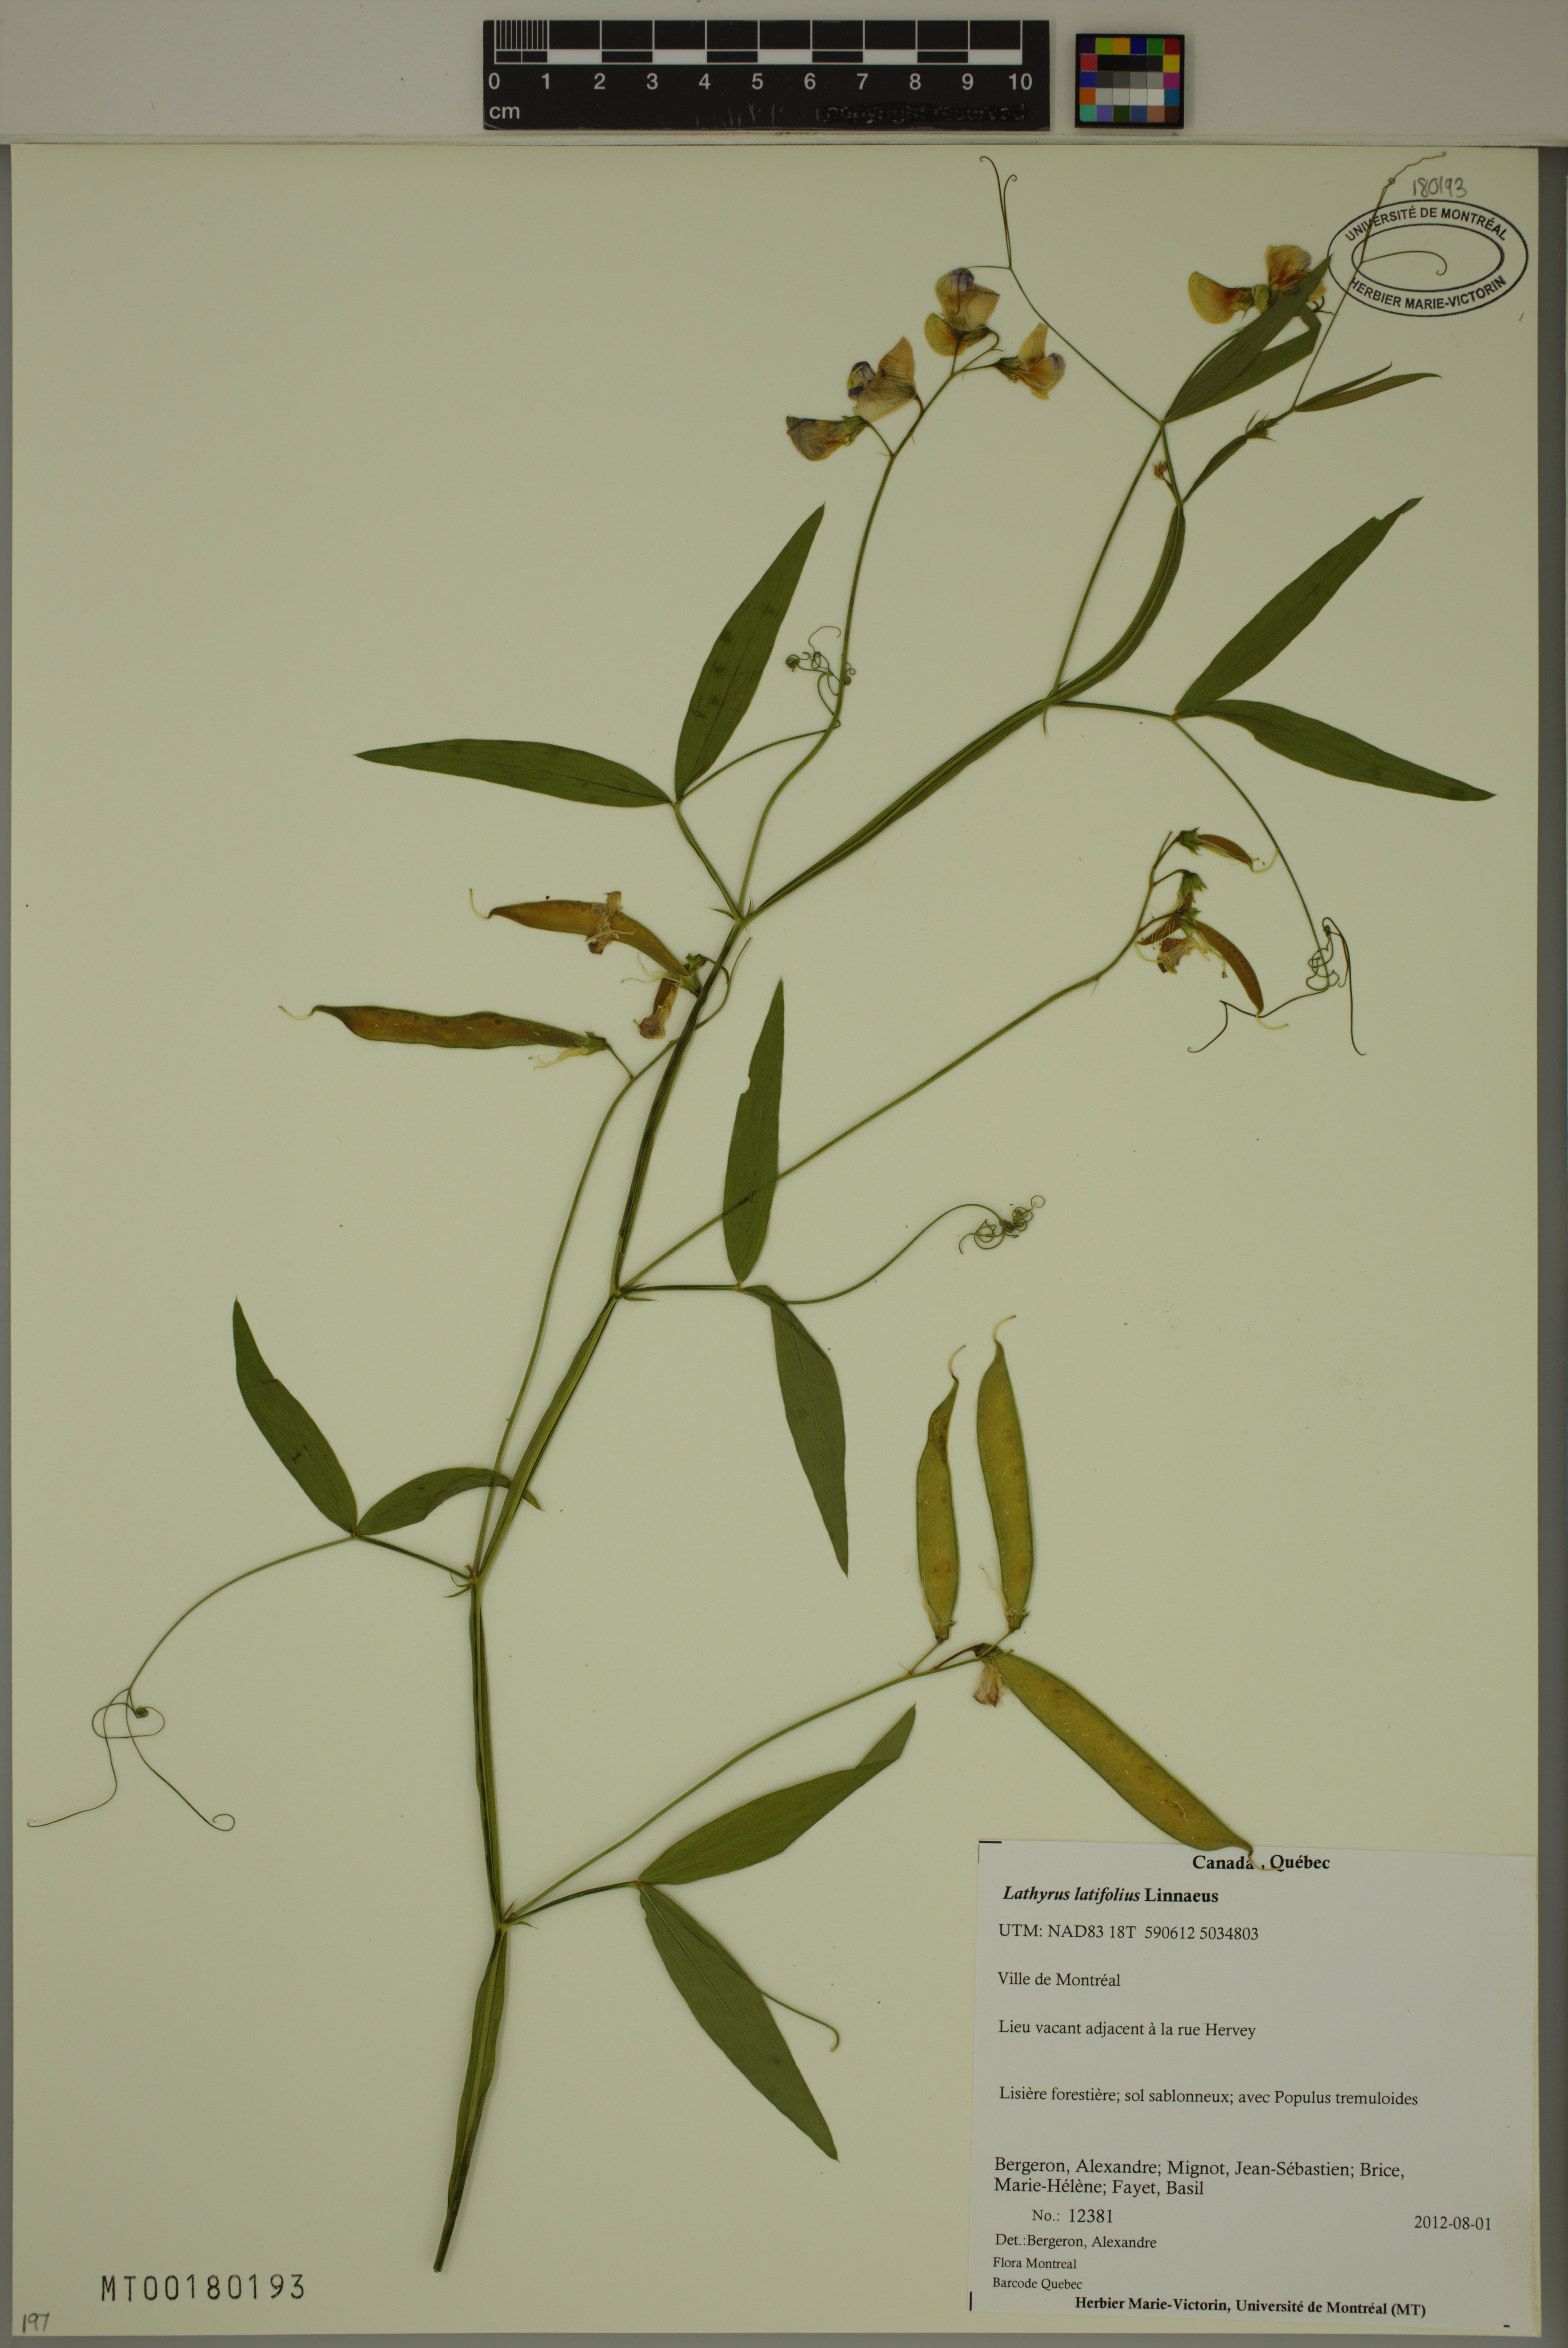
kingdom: Plantae
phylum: Tracheophyta
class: Magnoliopsida
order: Fabales
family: Fabaceae
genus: Lathyrus
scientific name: Lathyrus latifolius
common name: Perennial pea
